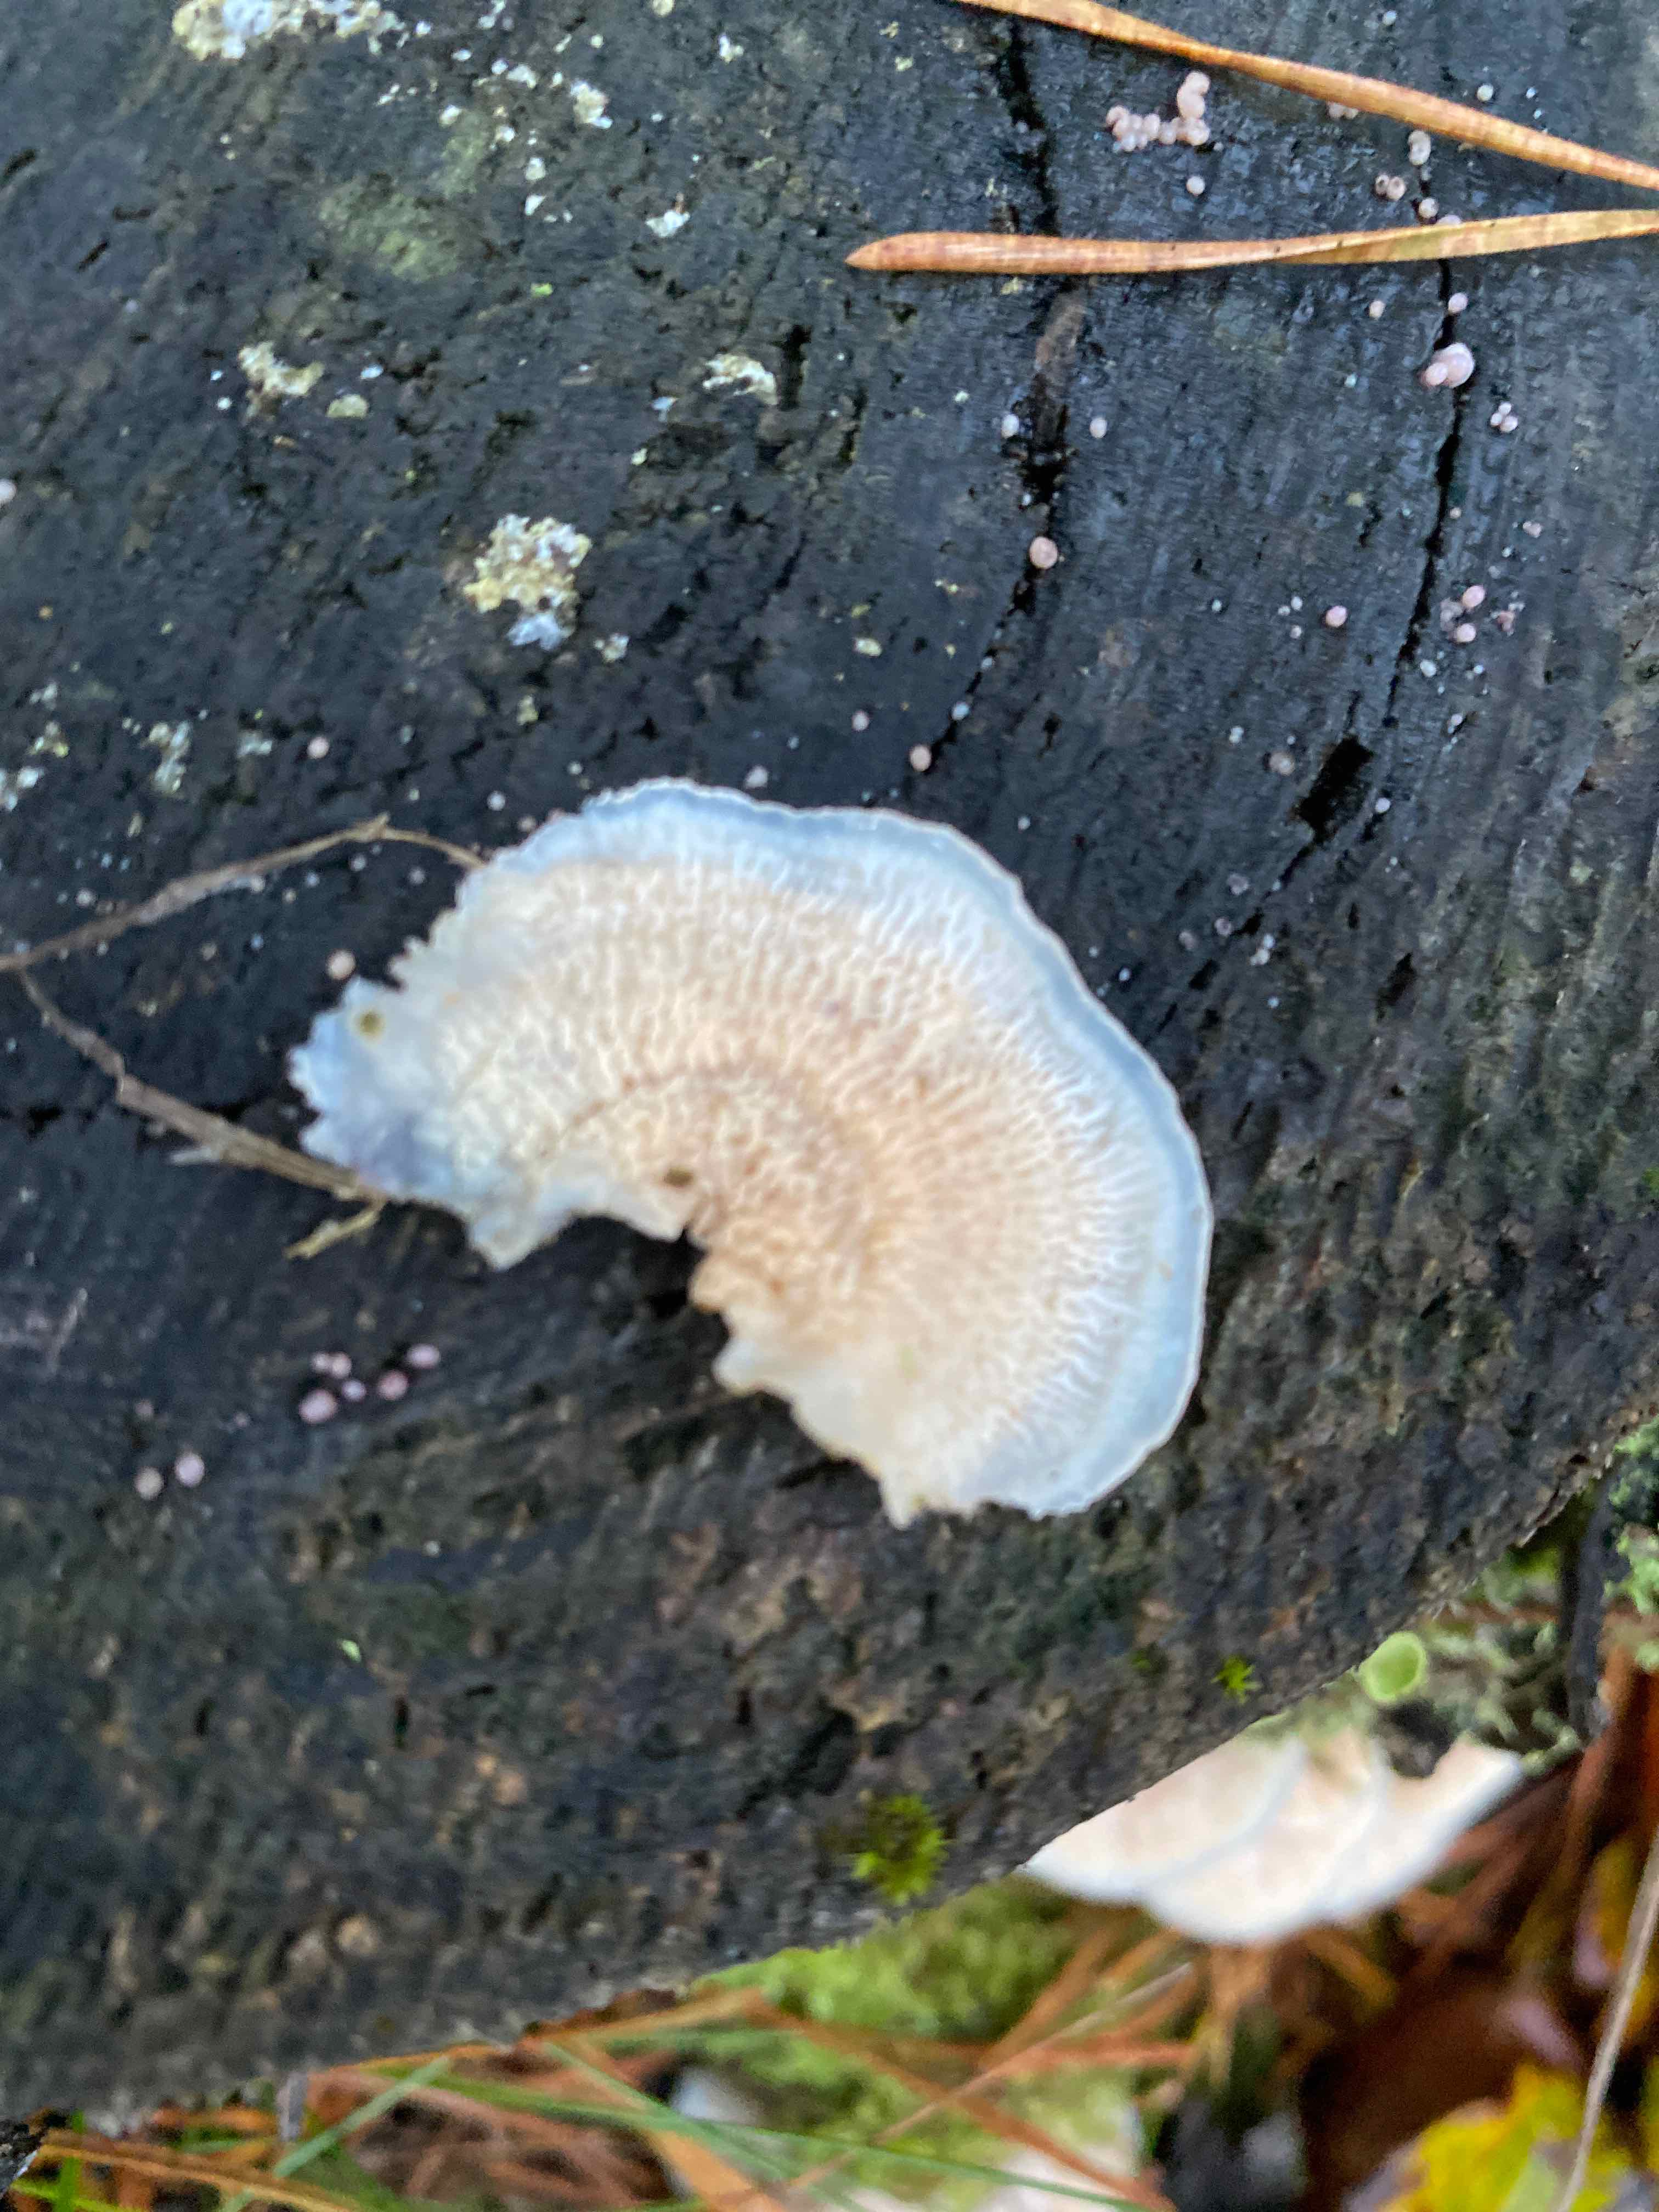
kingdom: Fungi
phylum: Basidiomycota
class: Agaricomycetes
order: Polyporales
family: Meruliaceae
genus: Phlebia
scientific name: Phlebia tremellosa
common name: bævrende åresvamp
